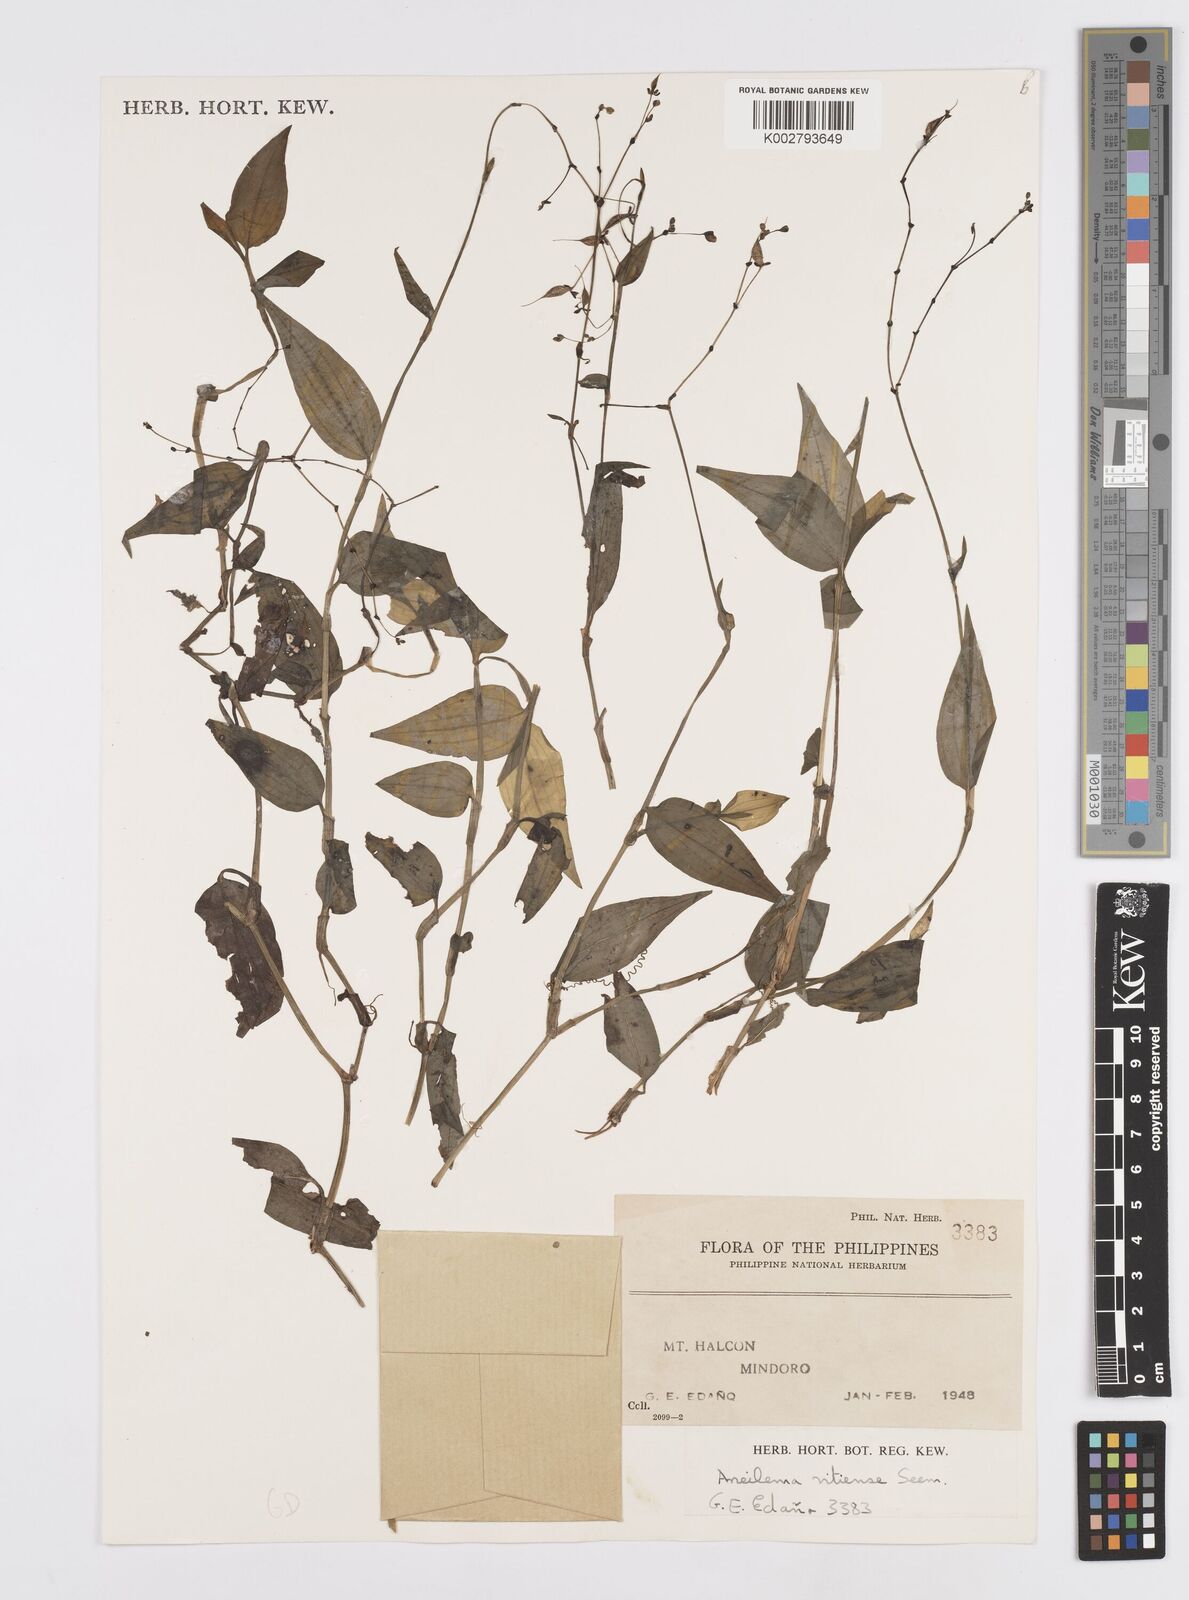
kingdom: Plantae
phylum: Tracheophyta
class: Liliopsida
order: Commelinales
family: Commelinaceae
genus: Murdannia
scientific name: Murdannia
